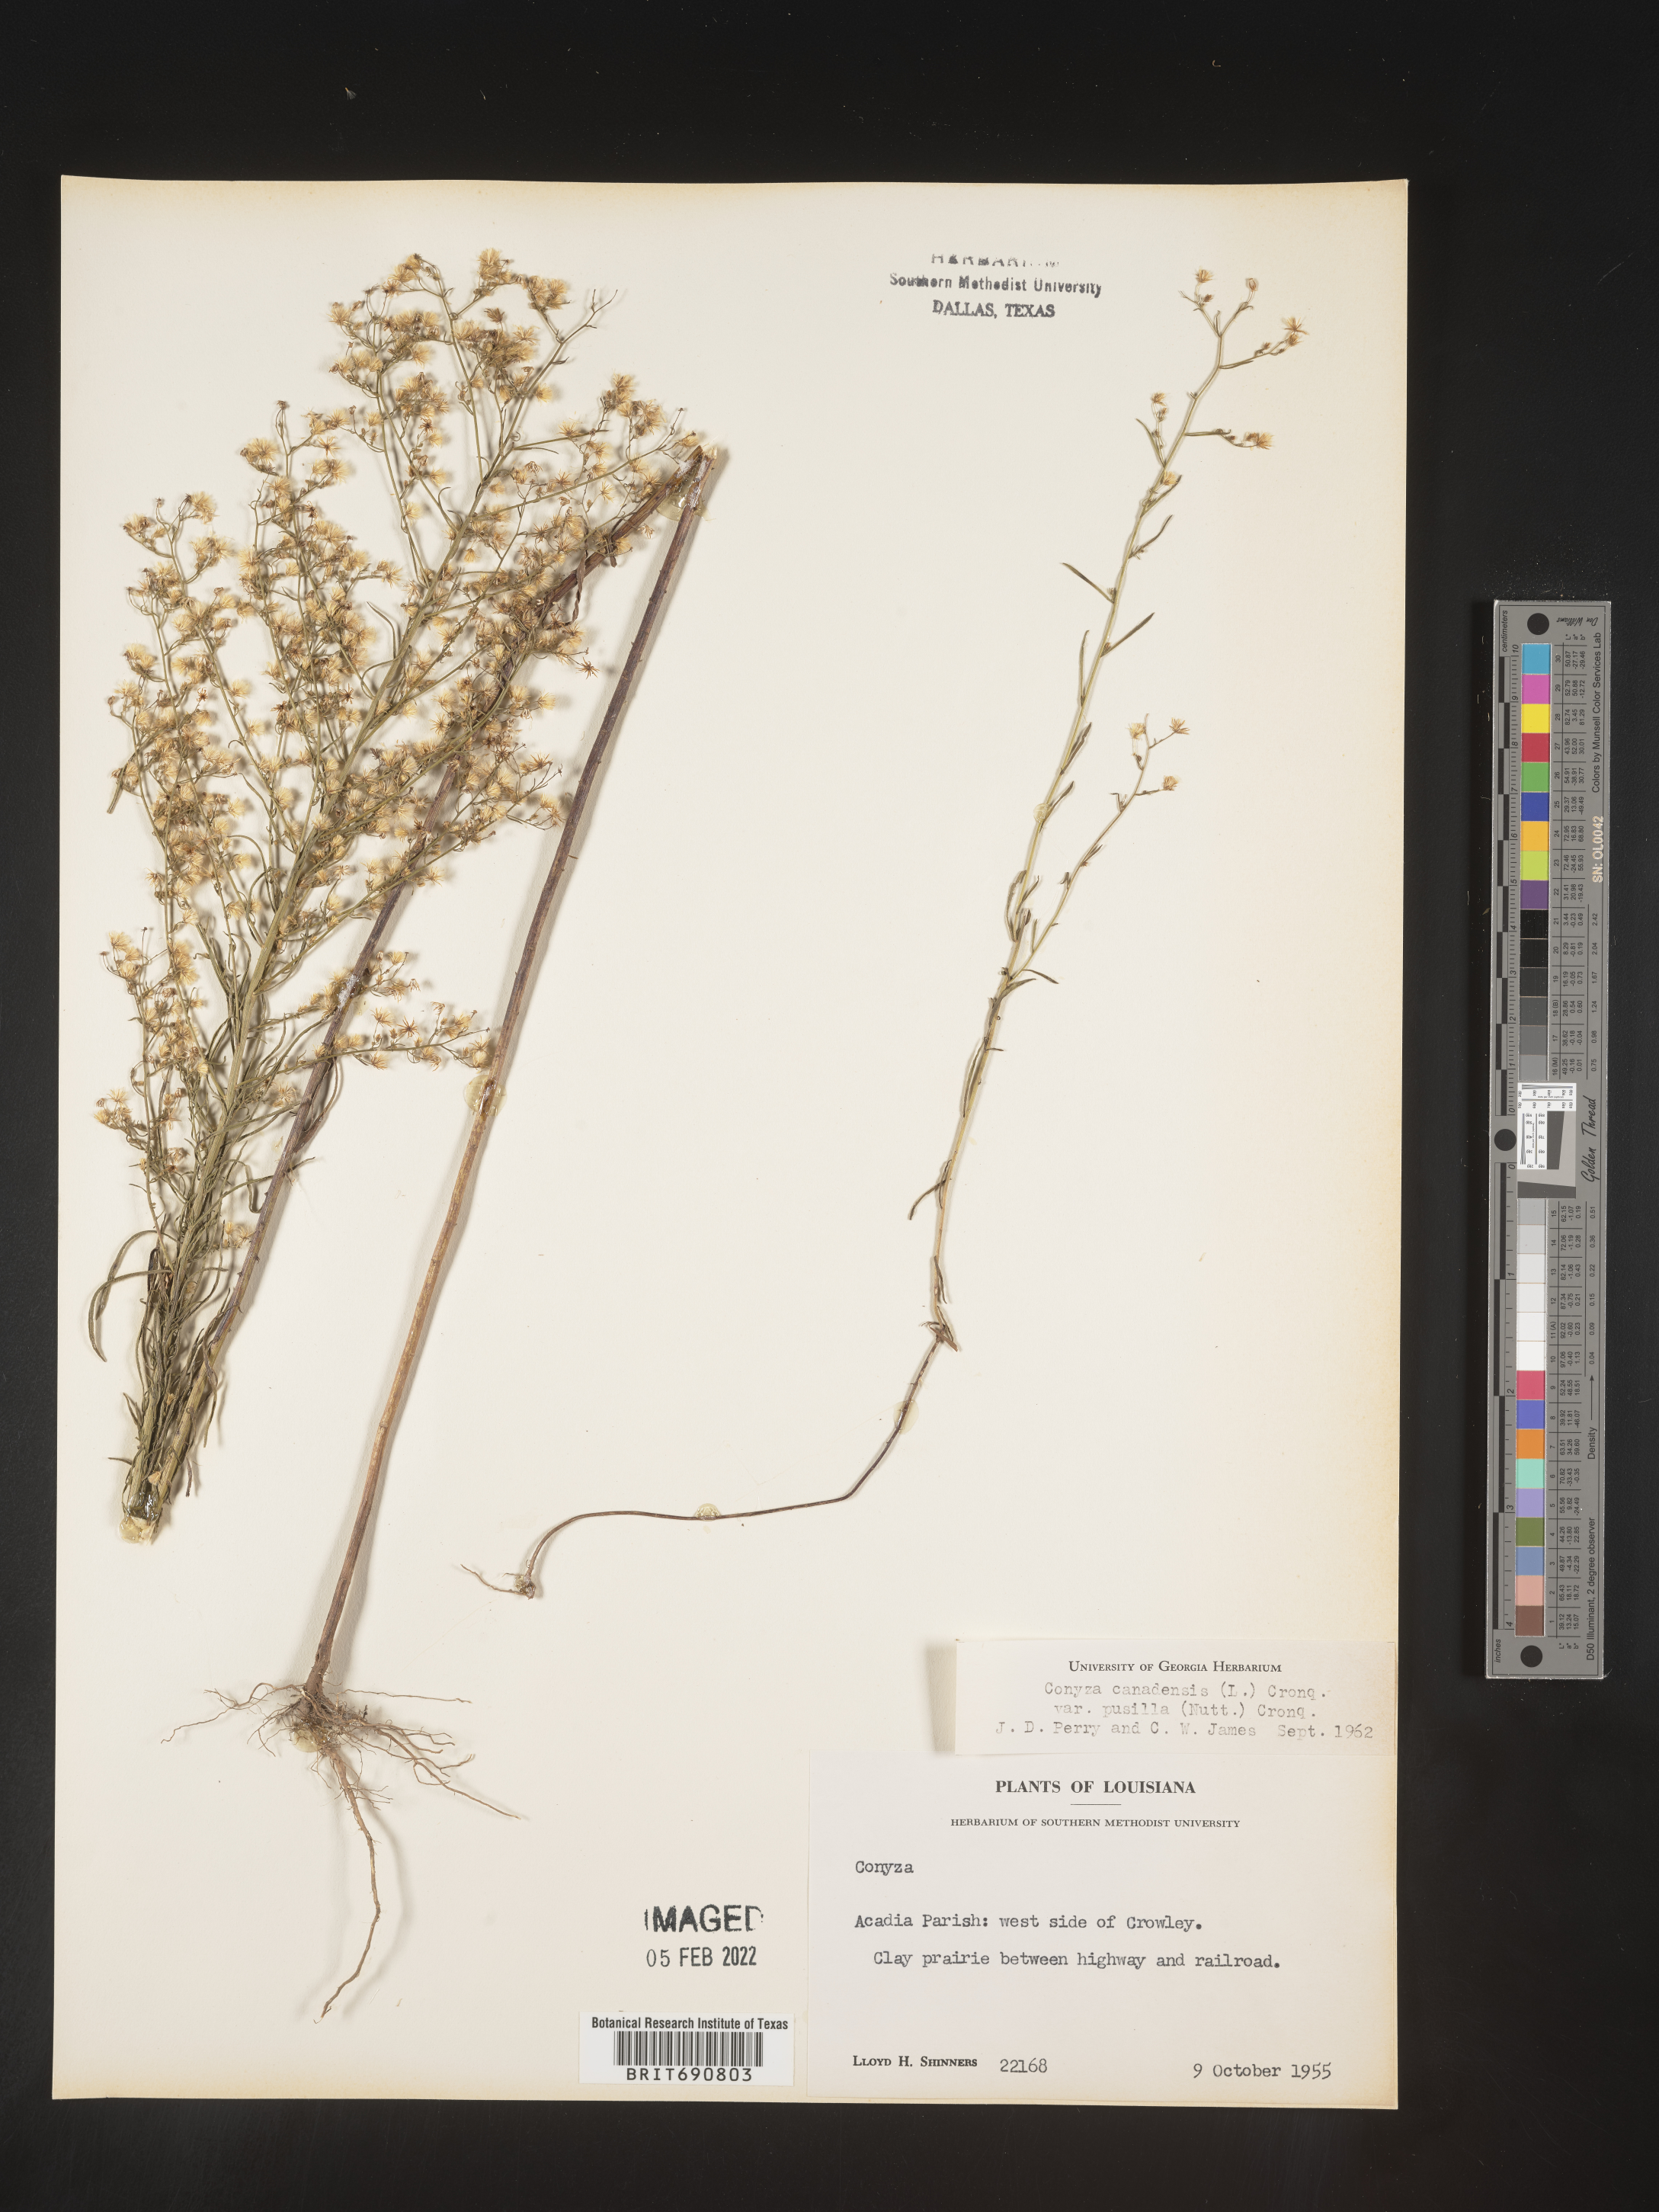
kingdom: Plantae
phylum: Tracheophyta
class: Magnoliopsida
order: Asterales
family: Asteraceae
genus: Erigeron
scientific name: Erigeron canadensis
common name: Canadian fleabane
